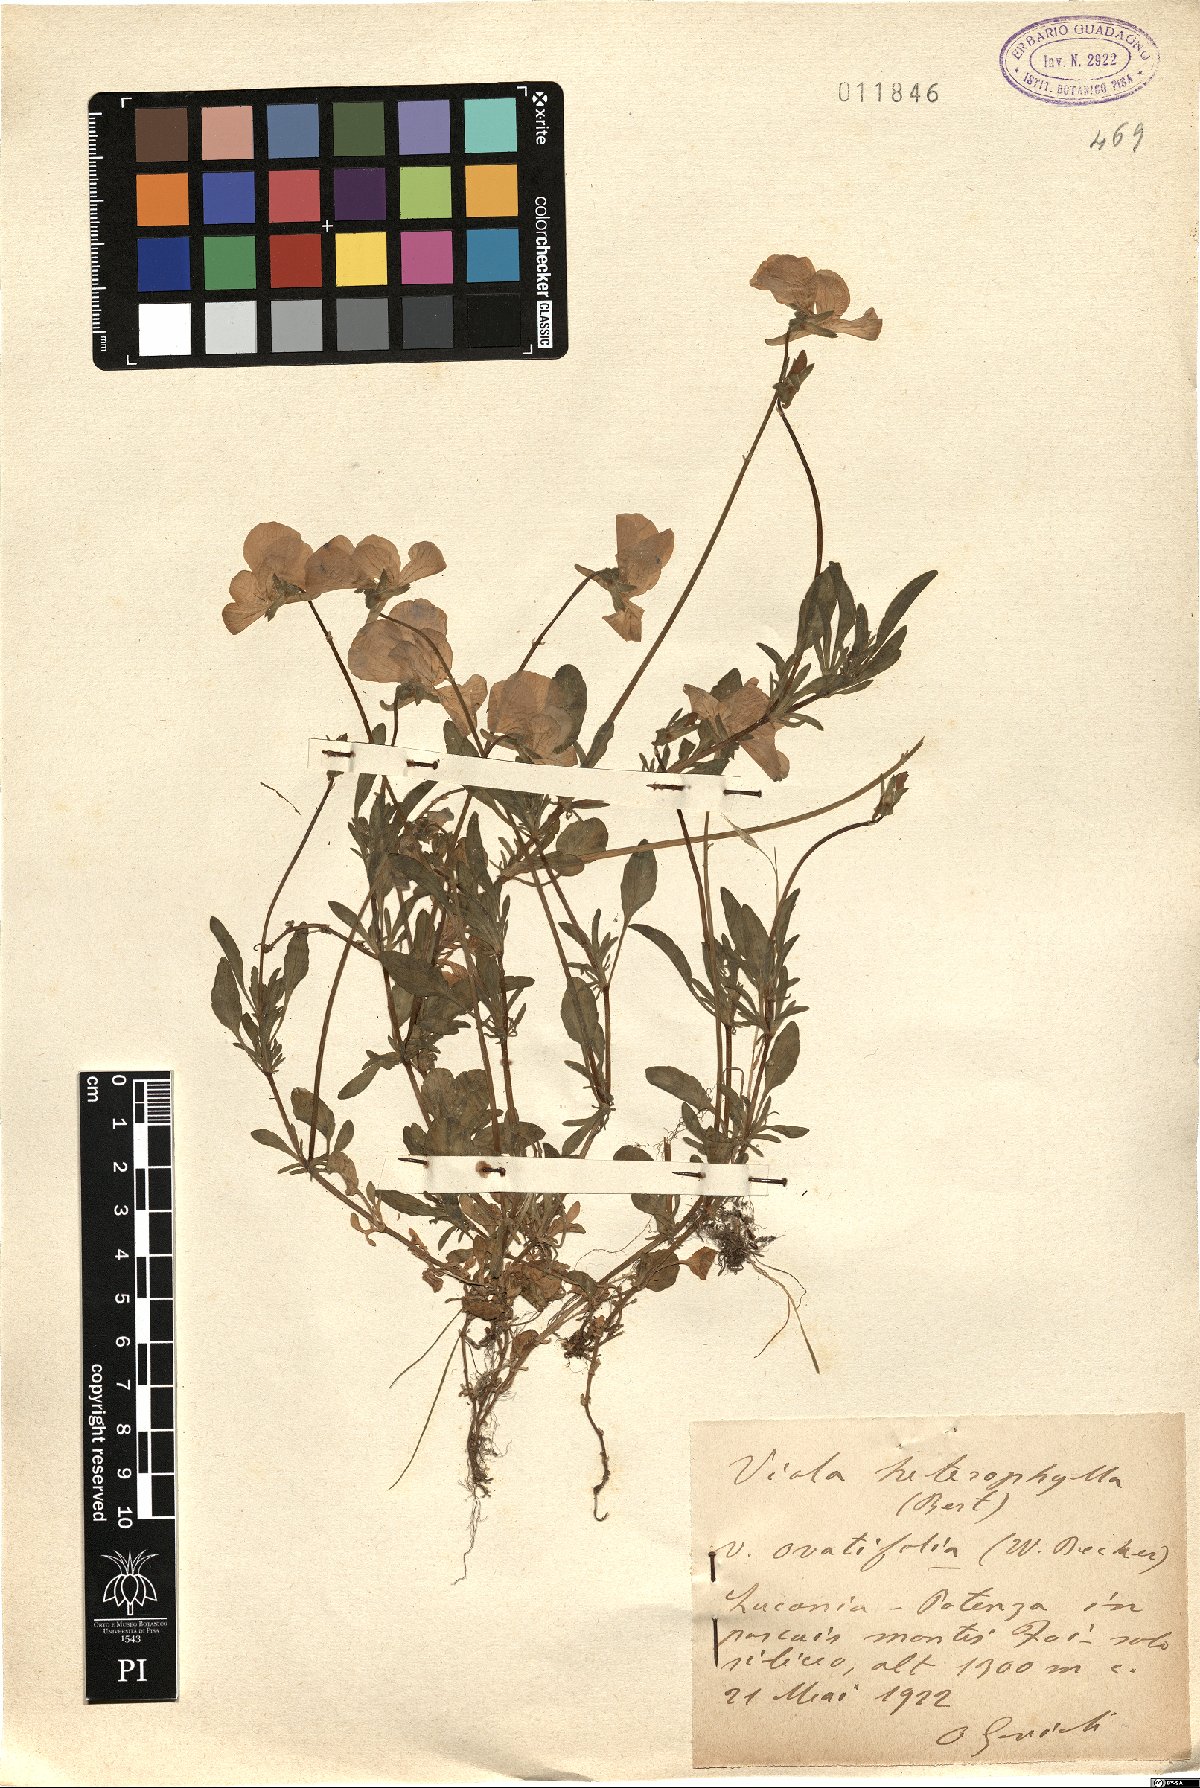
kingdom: Plantae
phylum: Tracheophyta
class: Magnoliopsida
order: Malpighiales
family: Violaceae
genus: Viola
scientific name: Viola heterophylla
